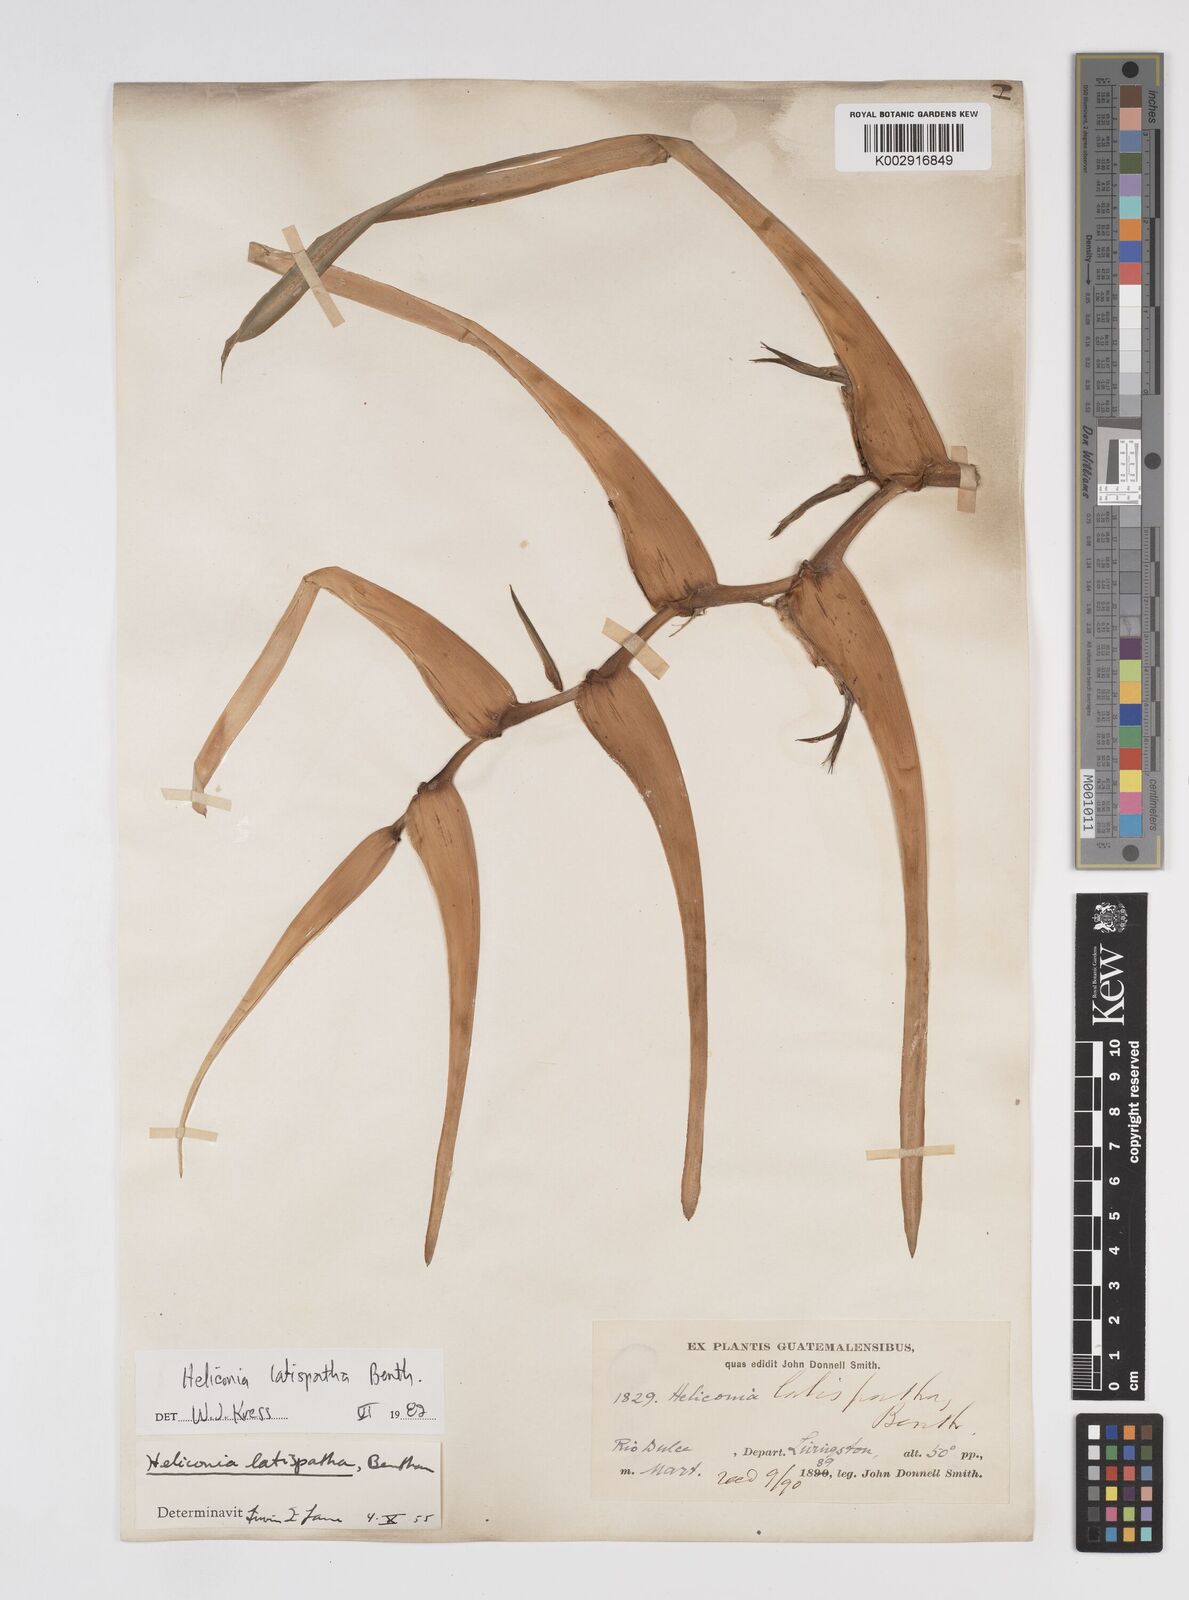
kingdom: Plantae
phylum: Tracheophyta
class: Liliopsida
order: Zingiberales
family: Heliconiaceae
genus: Heliconia
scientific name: Heliconia latispatha
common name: Expanded lobsterclaw
